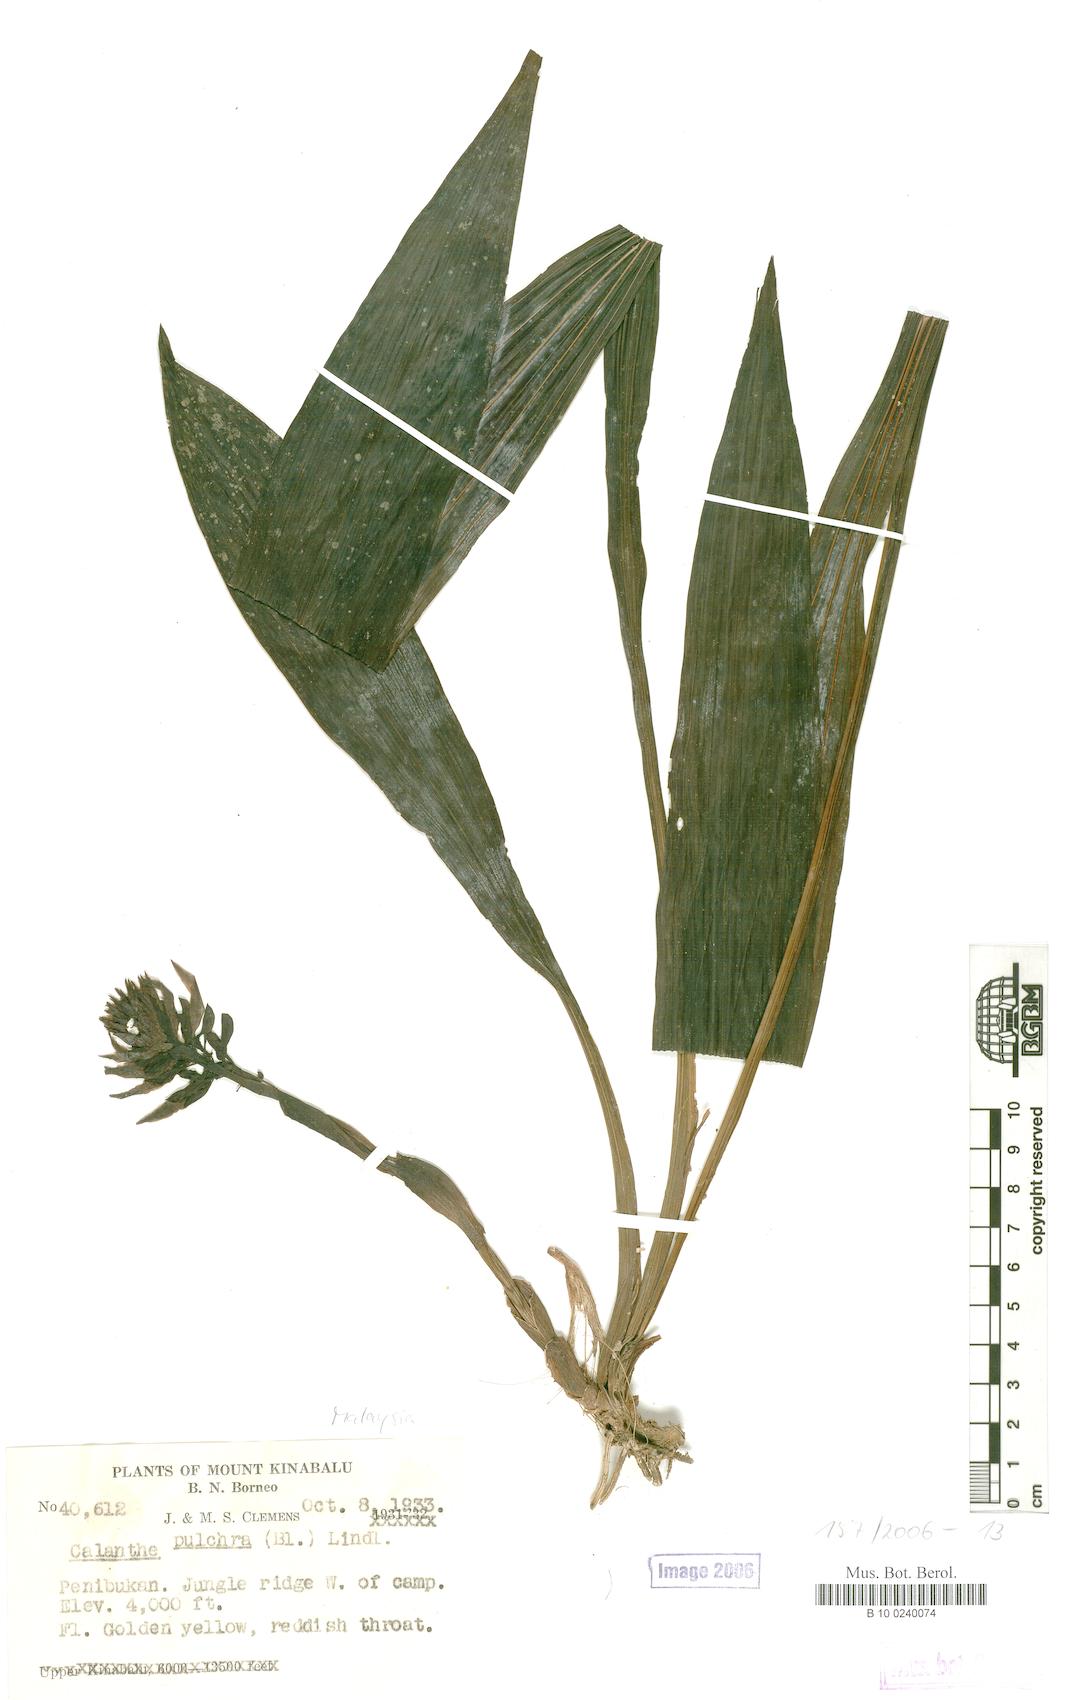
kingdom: Plantae
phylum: Tracheophyta
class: Liliopsida
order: Asparagales
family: Orchidaceae
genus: Calanthe
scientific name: Calanthe pulchra
